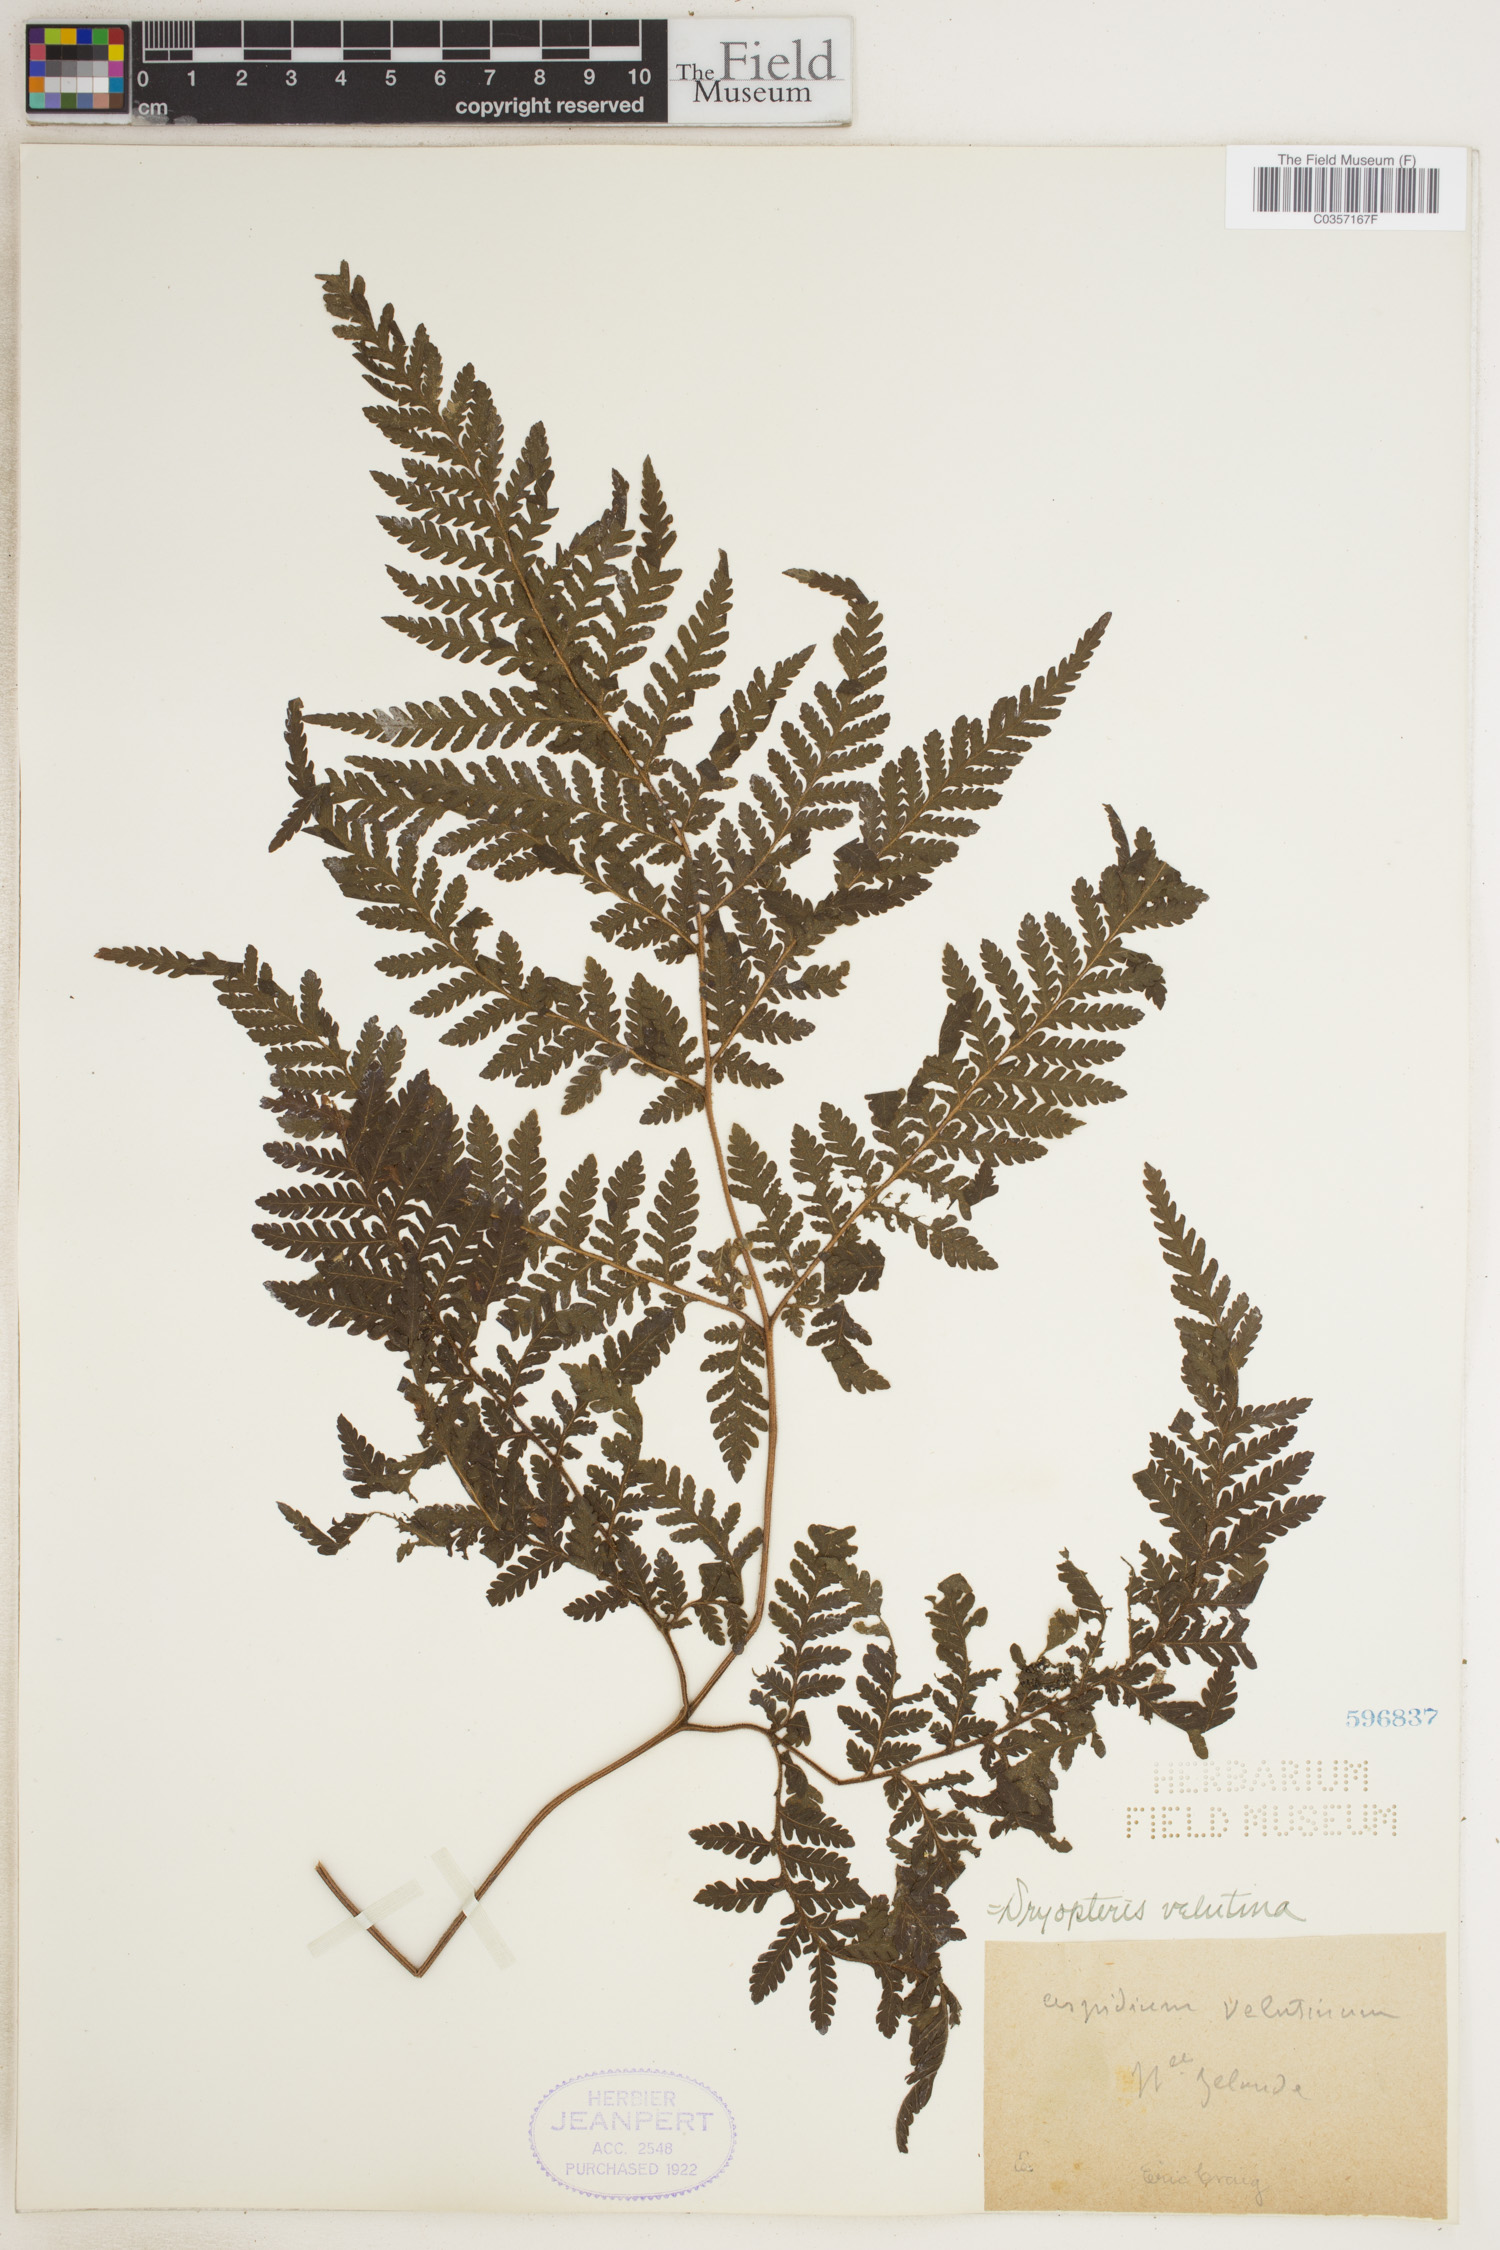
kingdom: Plantae
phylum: Tracheophyta
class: Polypodiopsida
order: Polypodiales
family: Dryopteridaceae
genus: Lastreopsis
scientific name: Lastreopsis velutina
